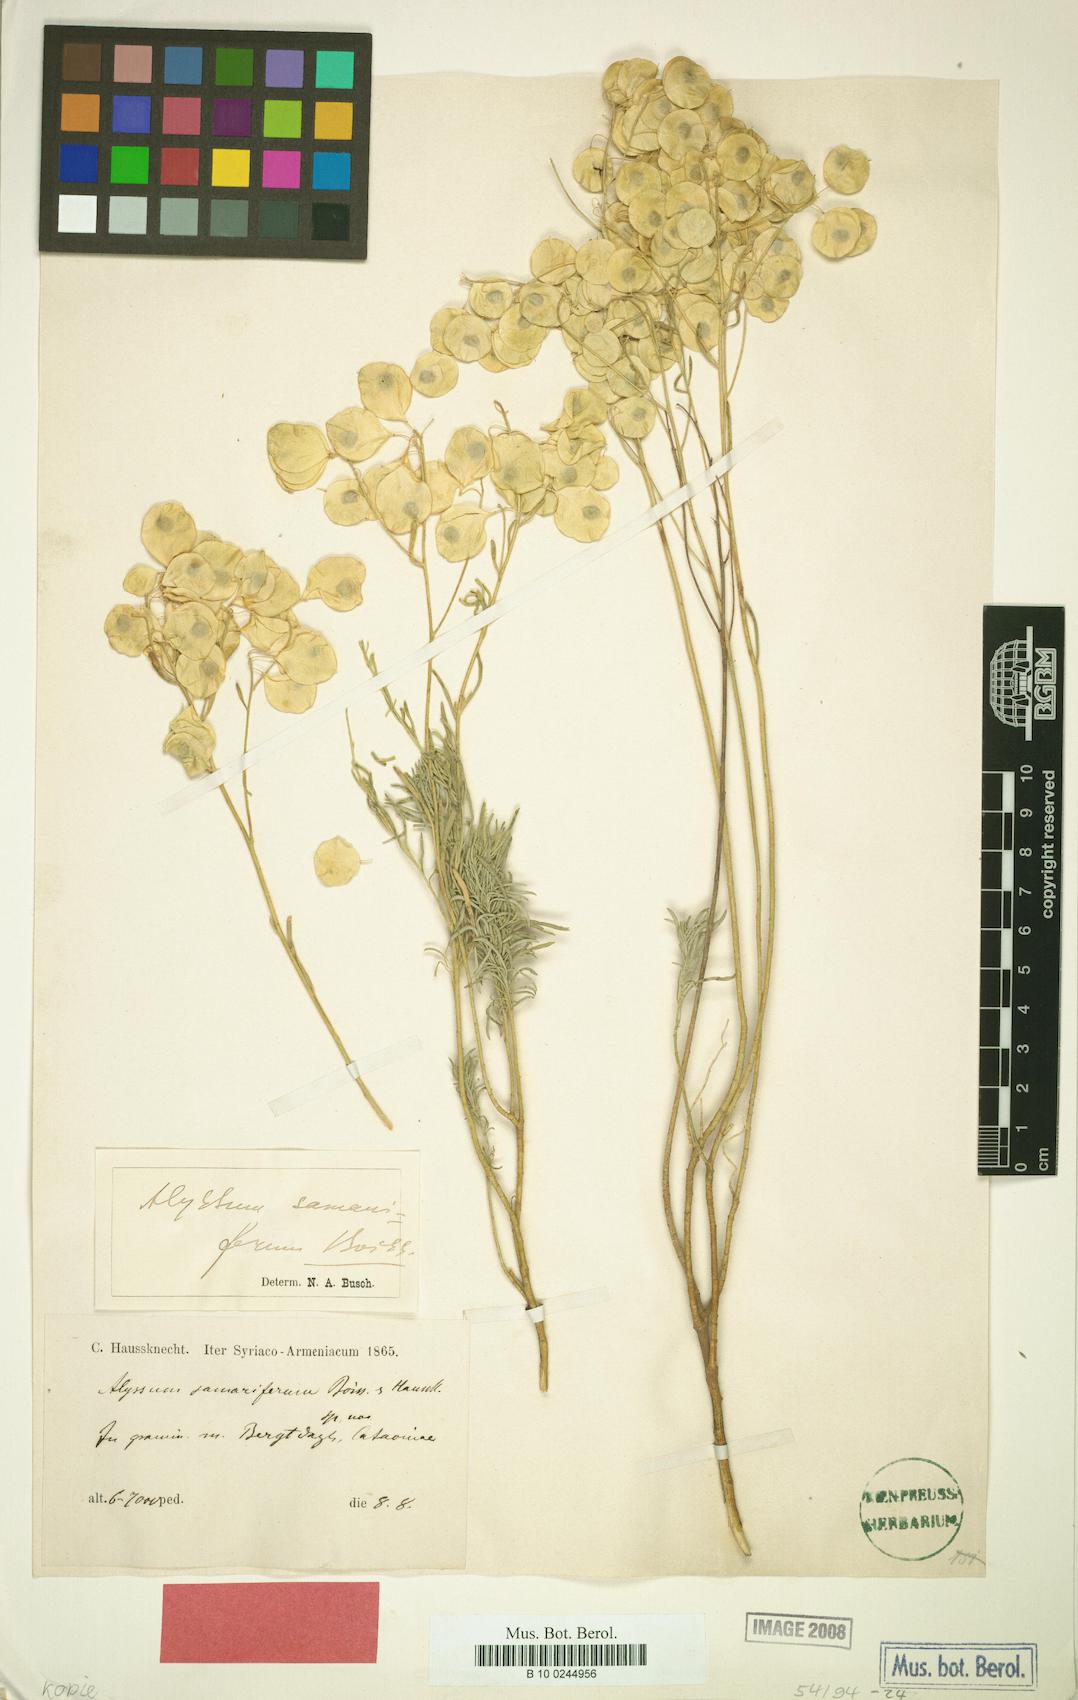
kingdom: Plantae
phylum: Tracheophyta
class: Magnoliopsida
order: Brassicales
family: Brassicaceae
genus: Odontarrhena
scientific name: Odontarrhena samarifera
